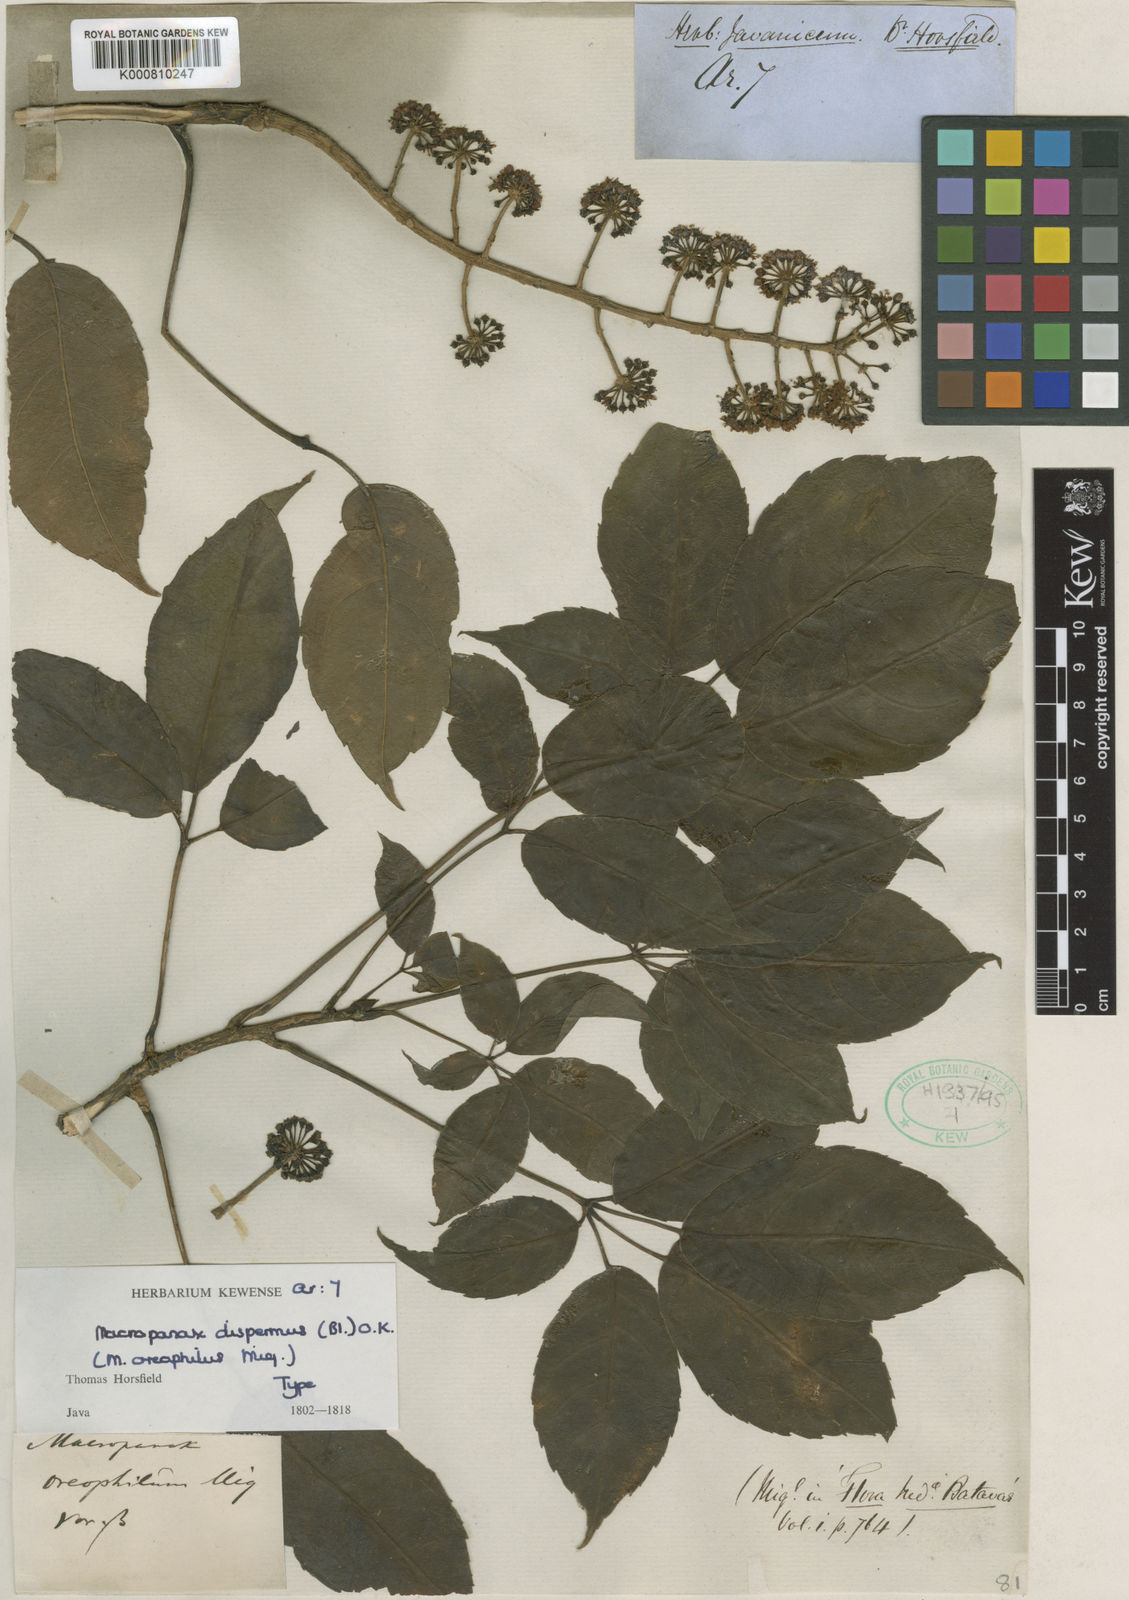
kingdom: Plantae
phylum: Tracheophyta
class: Magnoliopsida
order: Apiales
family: Araliaceae
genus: Macropanax
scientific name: Macropanax dispermus
